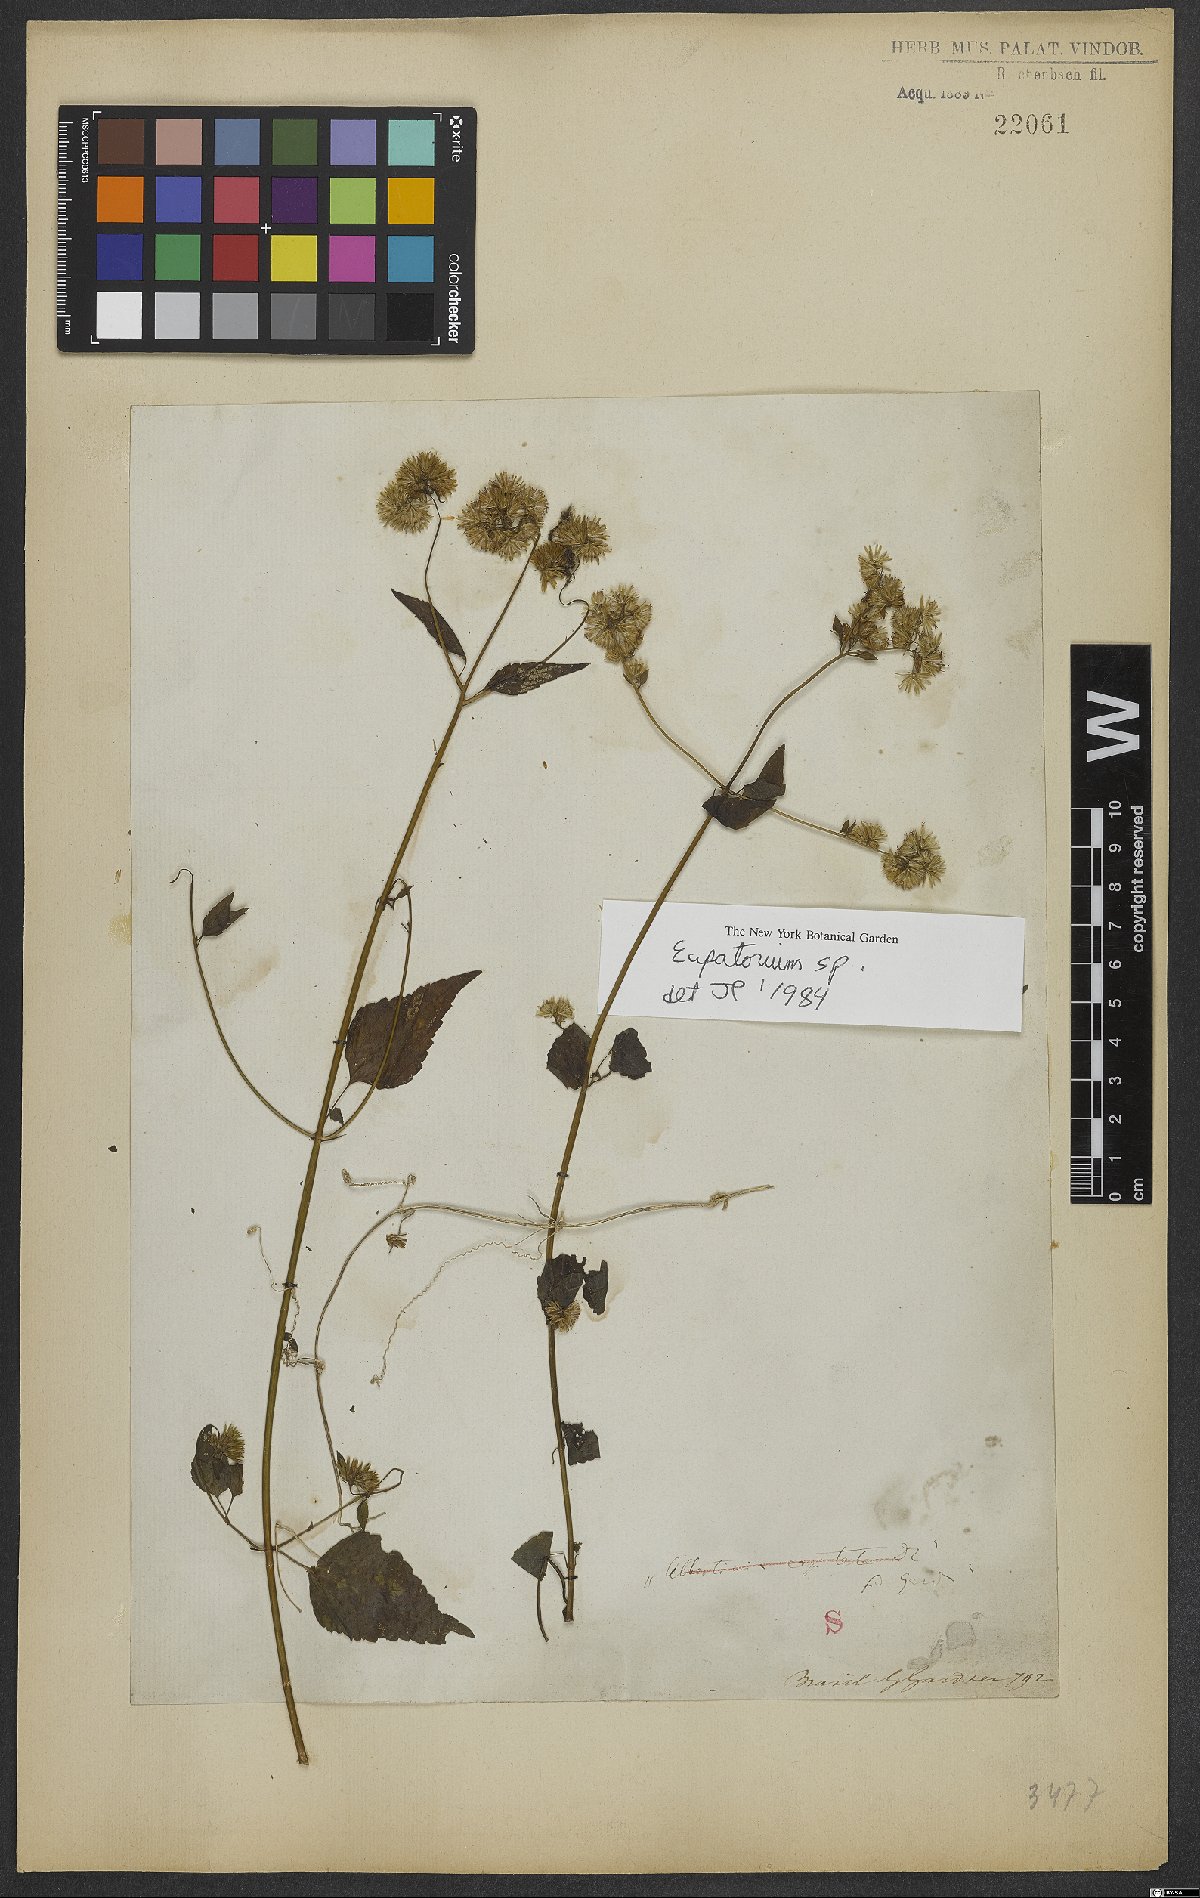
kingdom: Plantae
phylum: Tracheophyta
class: Magnoliopsida
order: Asterales
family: Asteraceae
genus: Eupatorium
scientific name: Eupatorium
